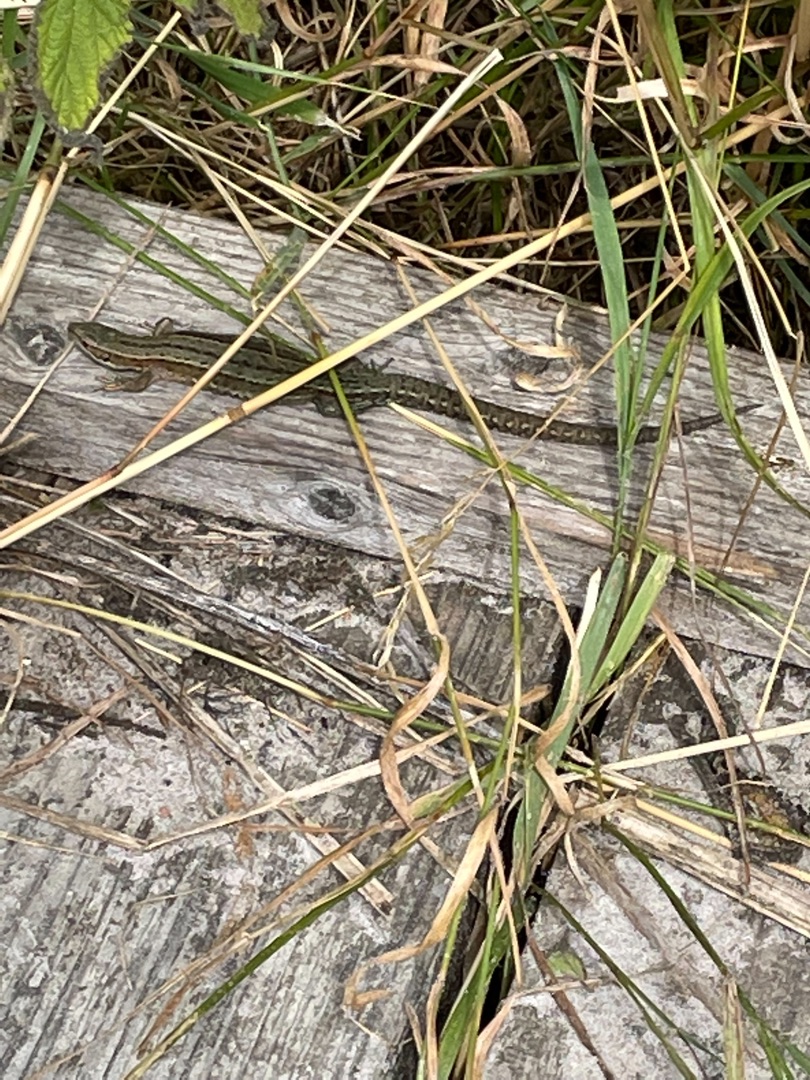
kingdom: Animalia
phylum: Chordata
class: Squamata
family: Lacertidae
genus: Zootoca
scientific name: Zootoca vivipara
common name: Skovfirben
